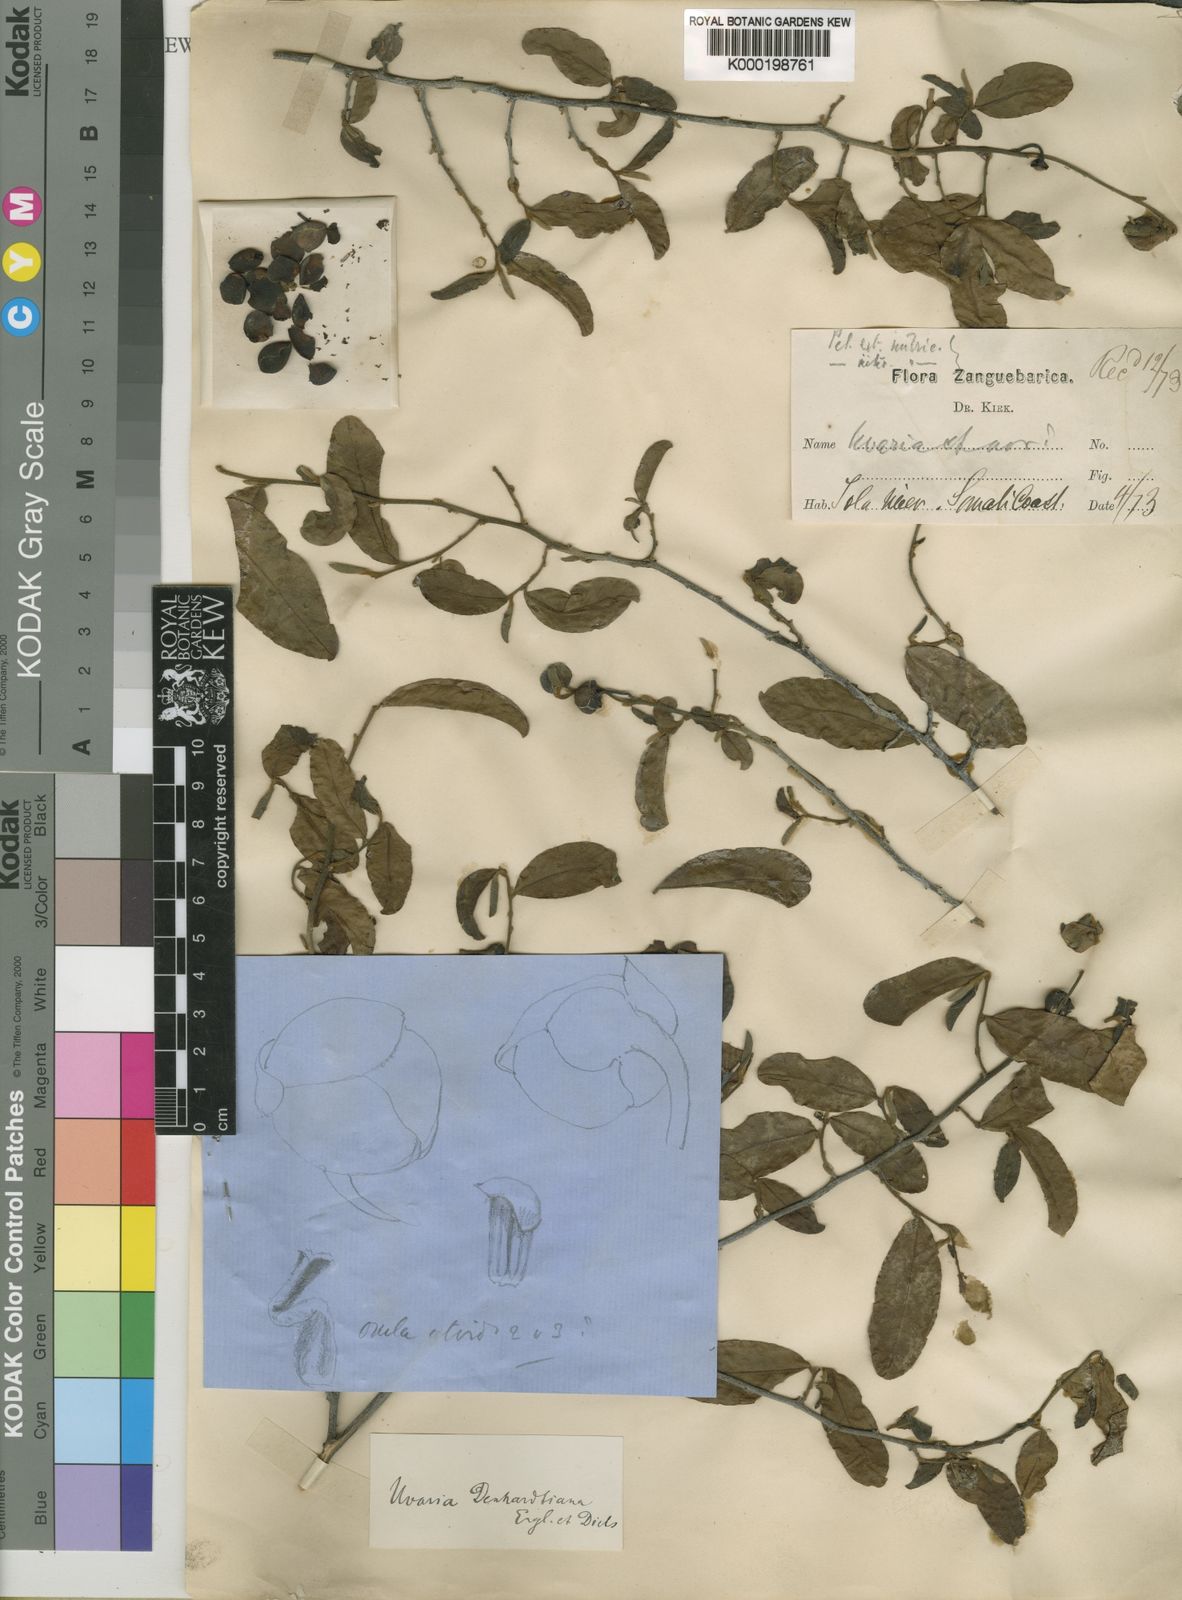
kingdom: Plantae
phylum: Tracheophyta
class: Magnoliopsida
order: Magnoliales
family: Annonaceae
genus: Uvaria
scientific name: Uvaria denhardtiana
